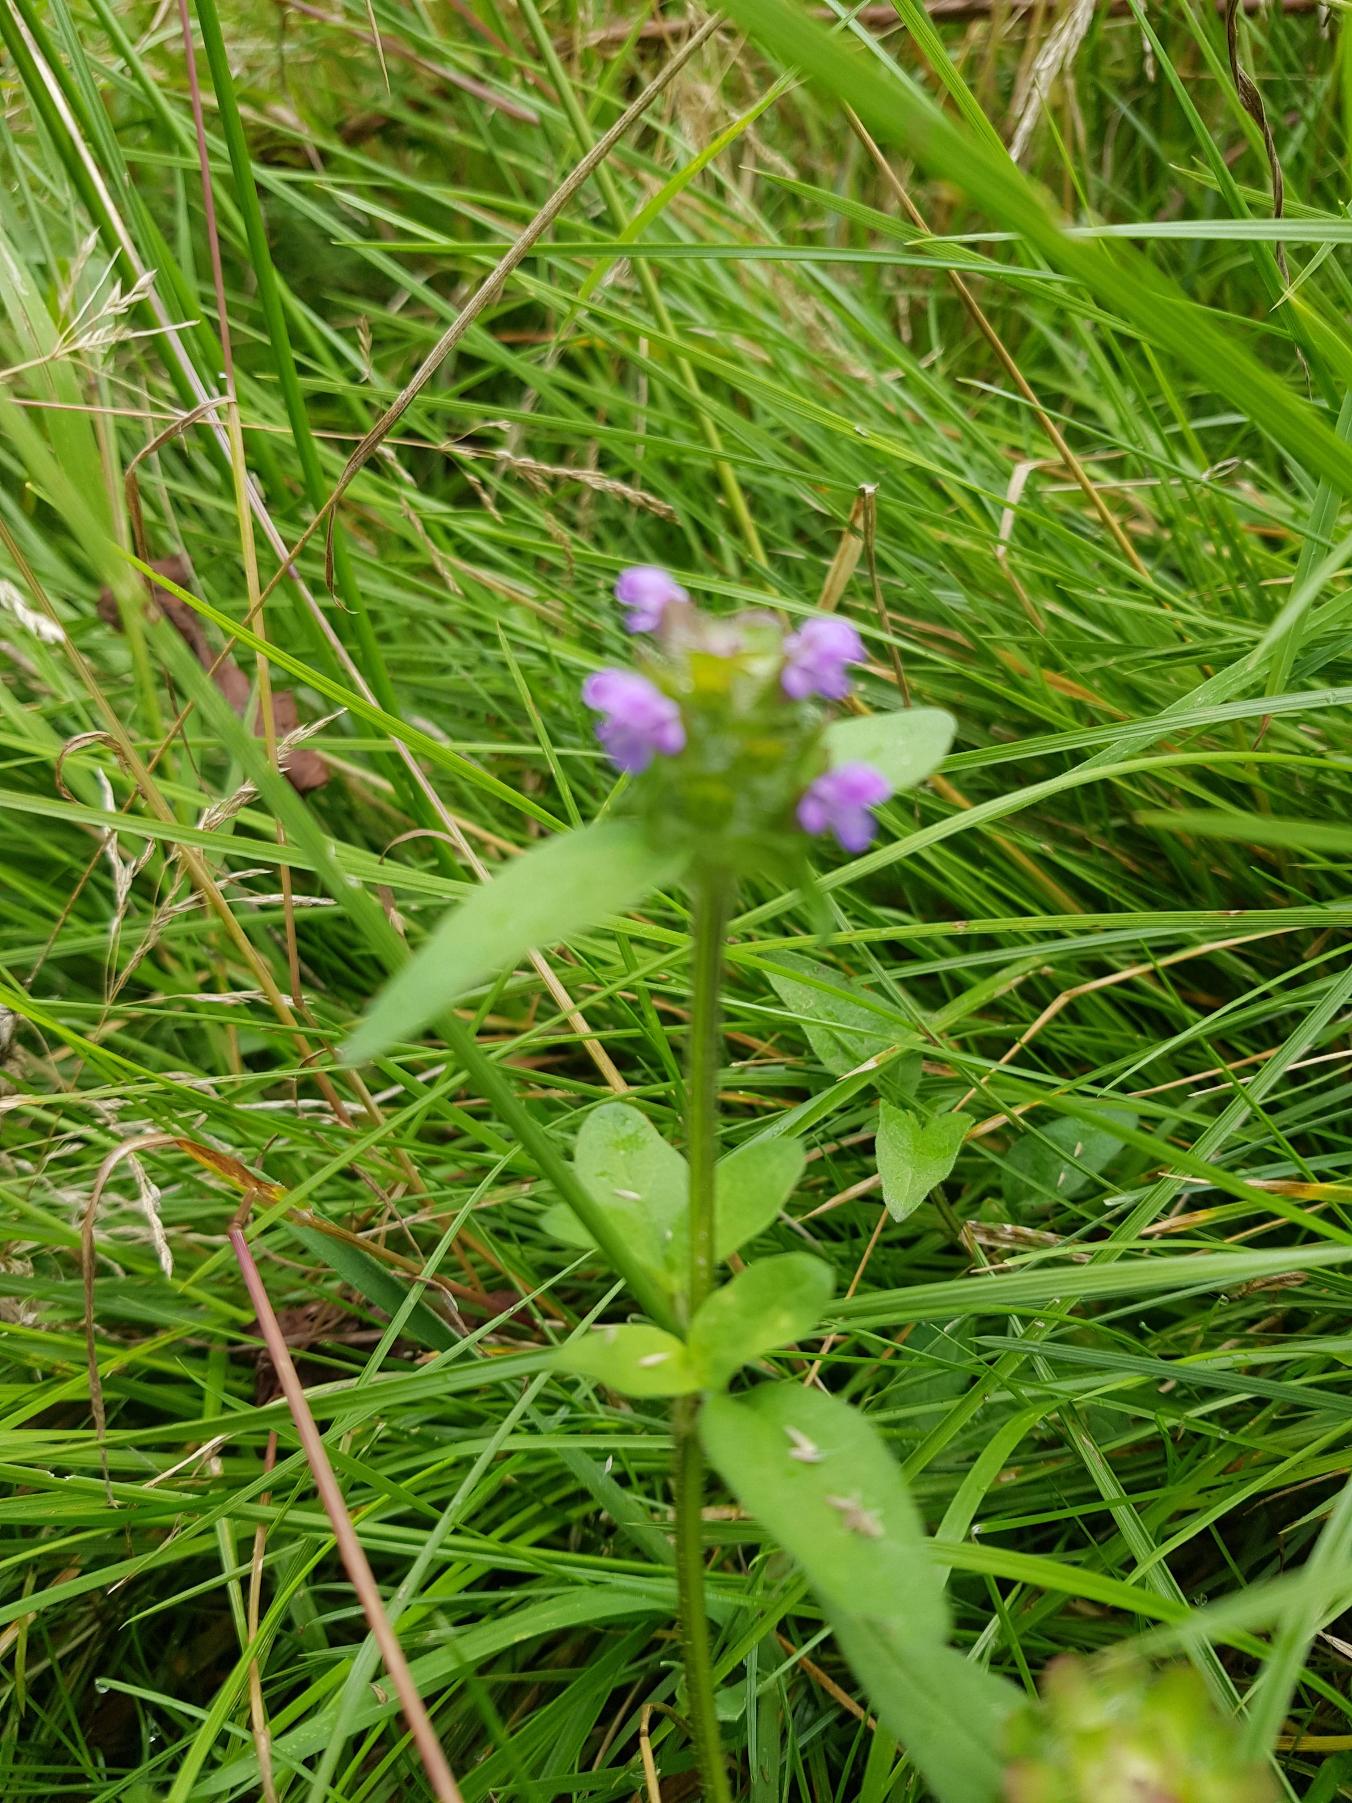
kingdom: Plantae
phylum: Tracheophyta
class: Magnoliopsida
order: Lamiales
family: Lamiaceae
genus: Prunella
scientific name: Prunella vulgaris
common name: Almindelig brunelle
